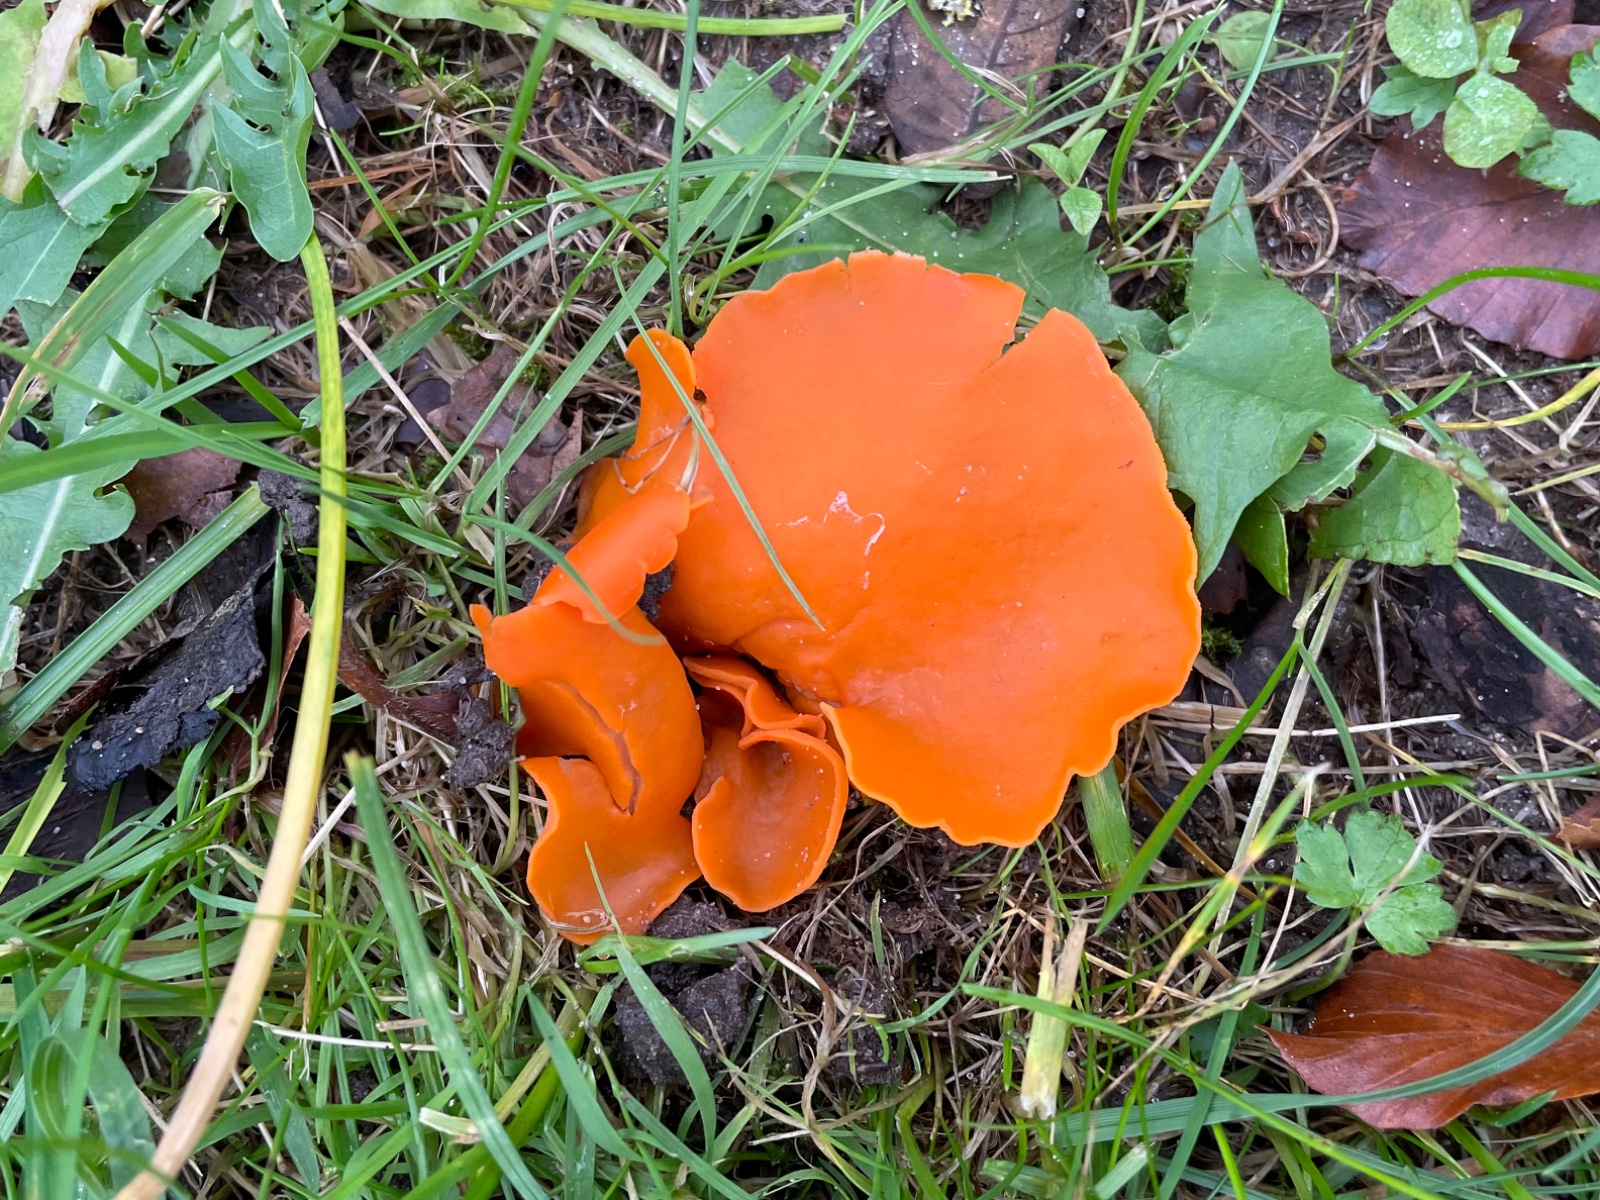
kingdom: Fungi
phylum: Ascomycota
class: Pezizomycetes
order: Pezizales
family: Pyronemataceae
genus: Aleuria
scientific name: Aleuria aurantia
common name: almindelig orangebæger
